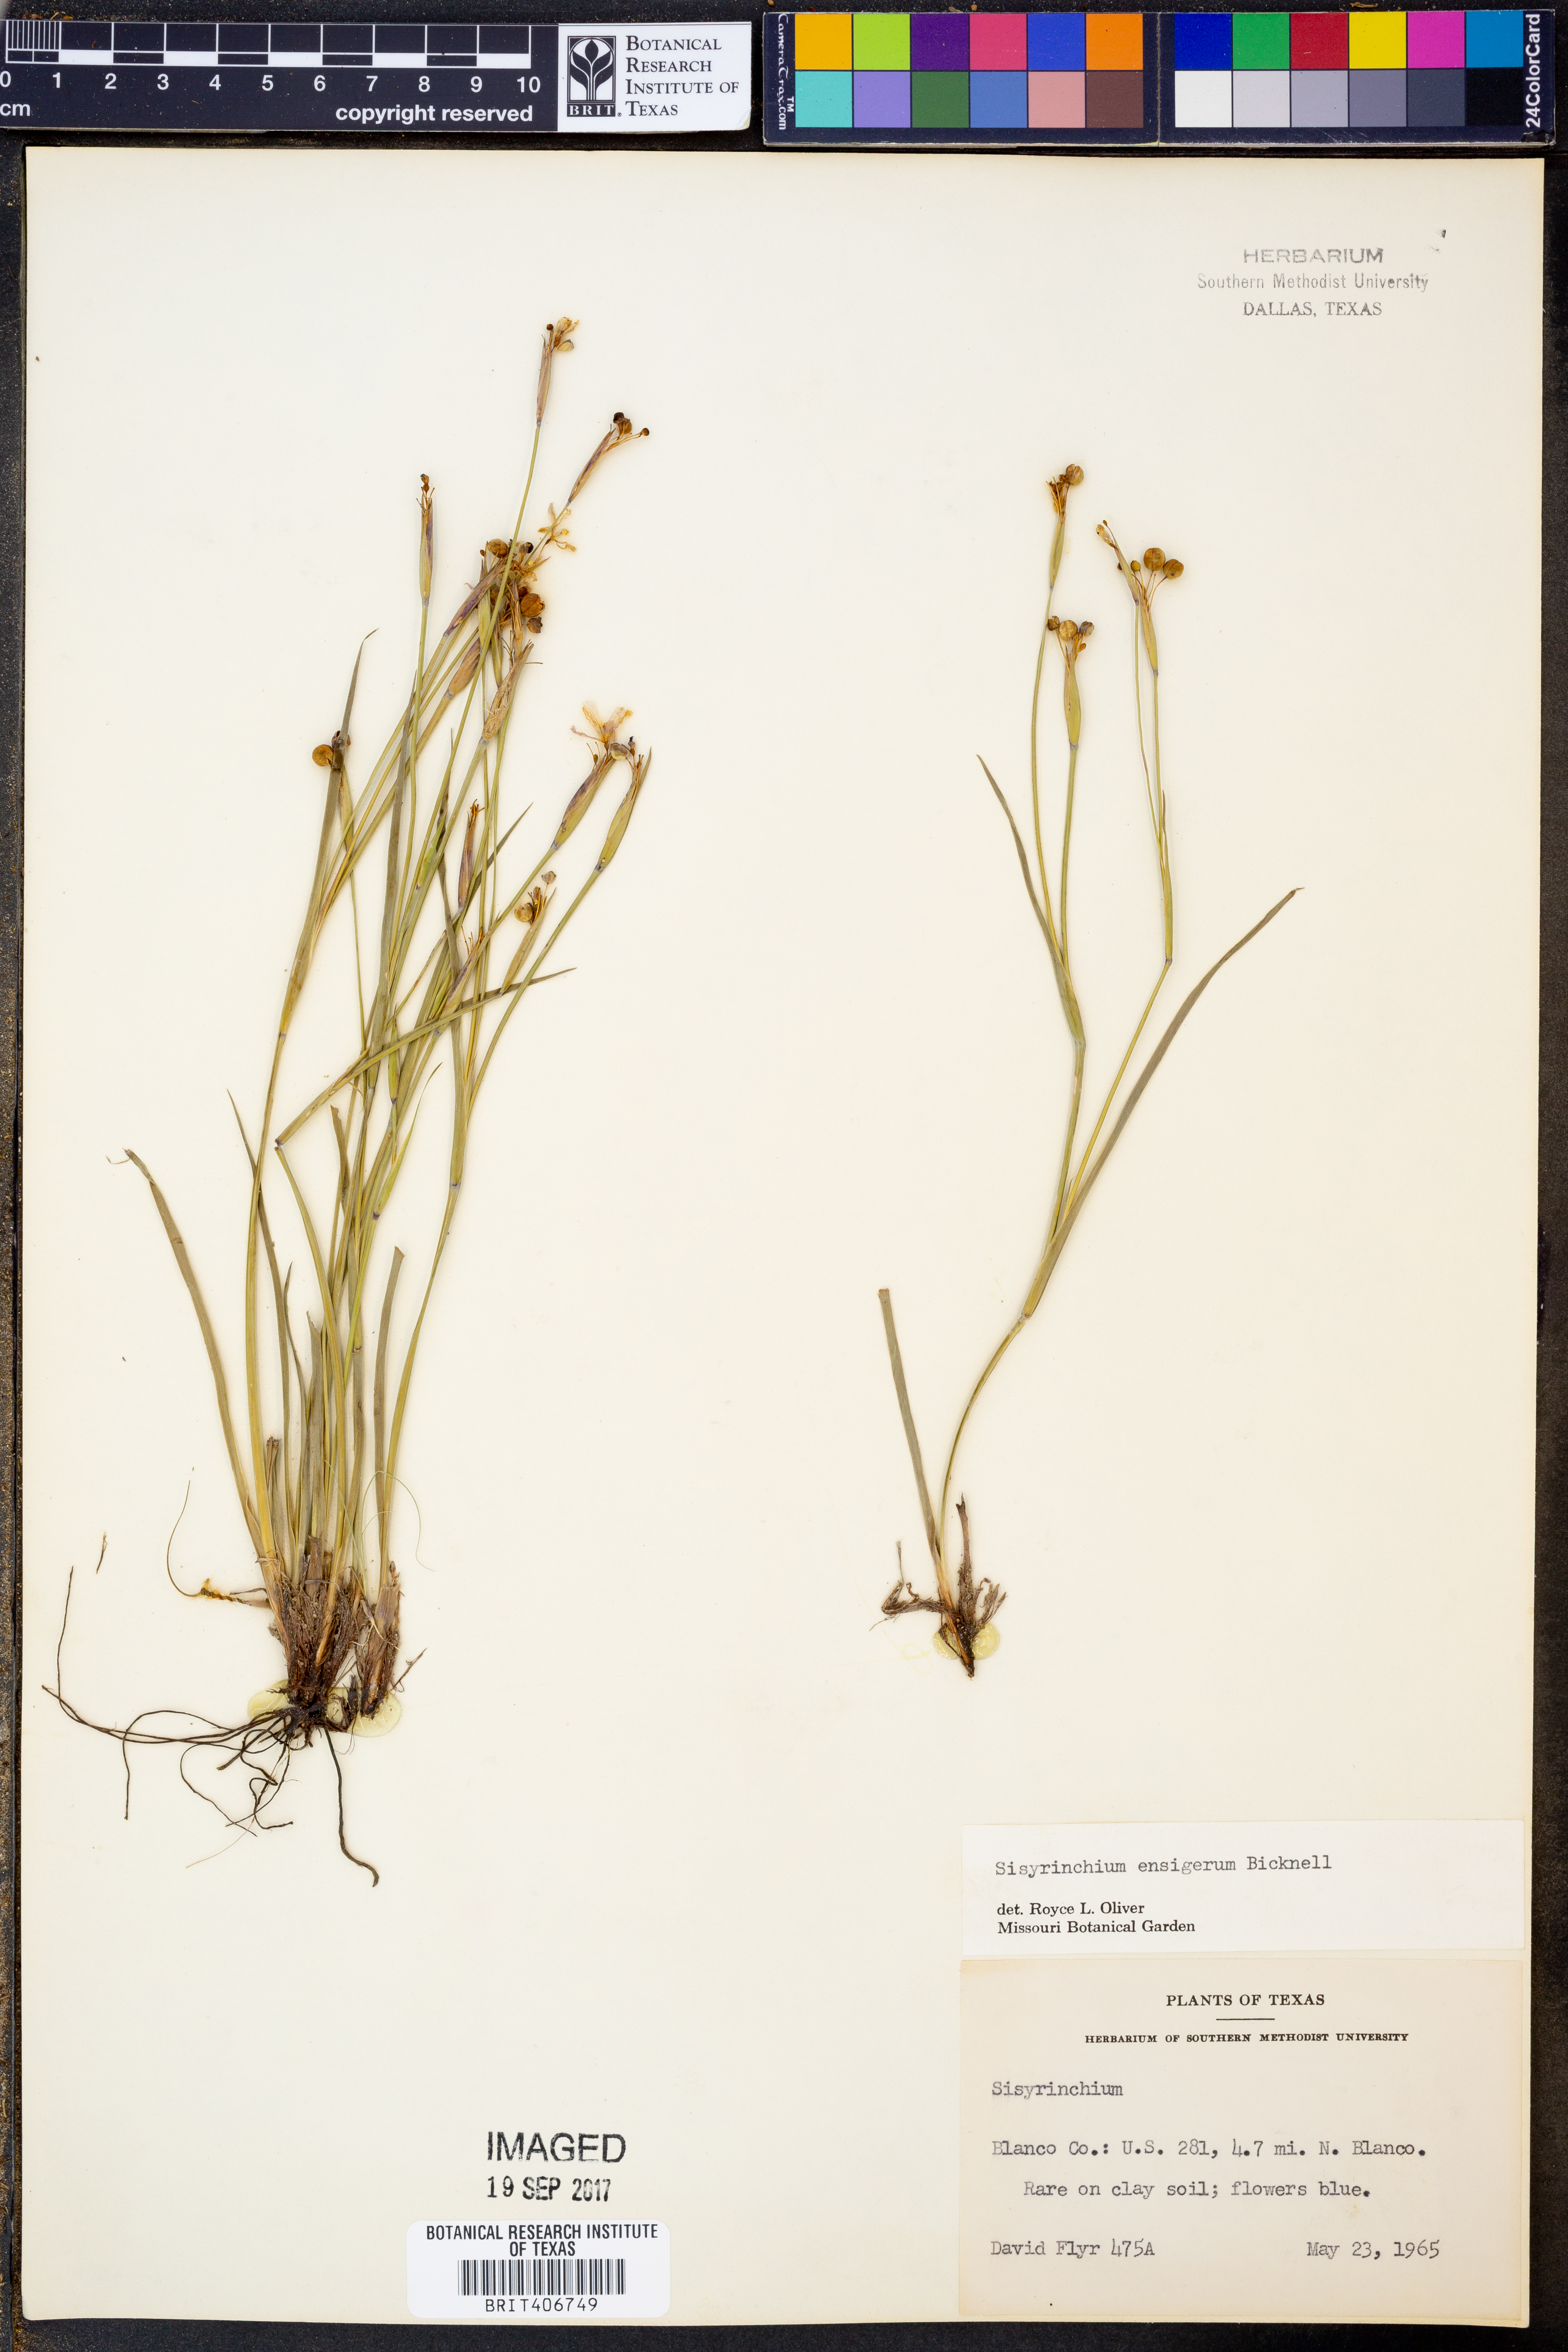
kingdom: Plantae
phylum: Tracheophyta
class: Liliopsida
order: Asparagales
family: Iridaceae
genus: Sisyrinchium
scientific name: Sisyrinchium ensigerum
